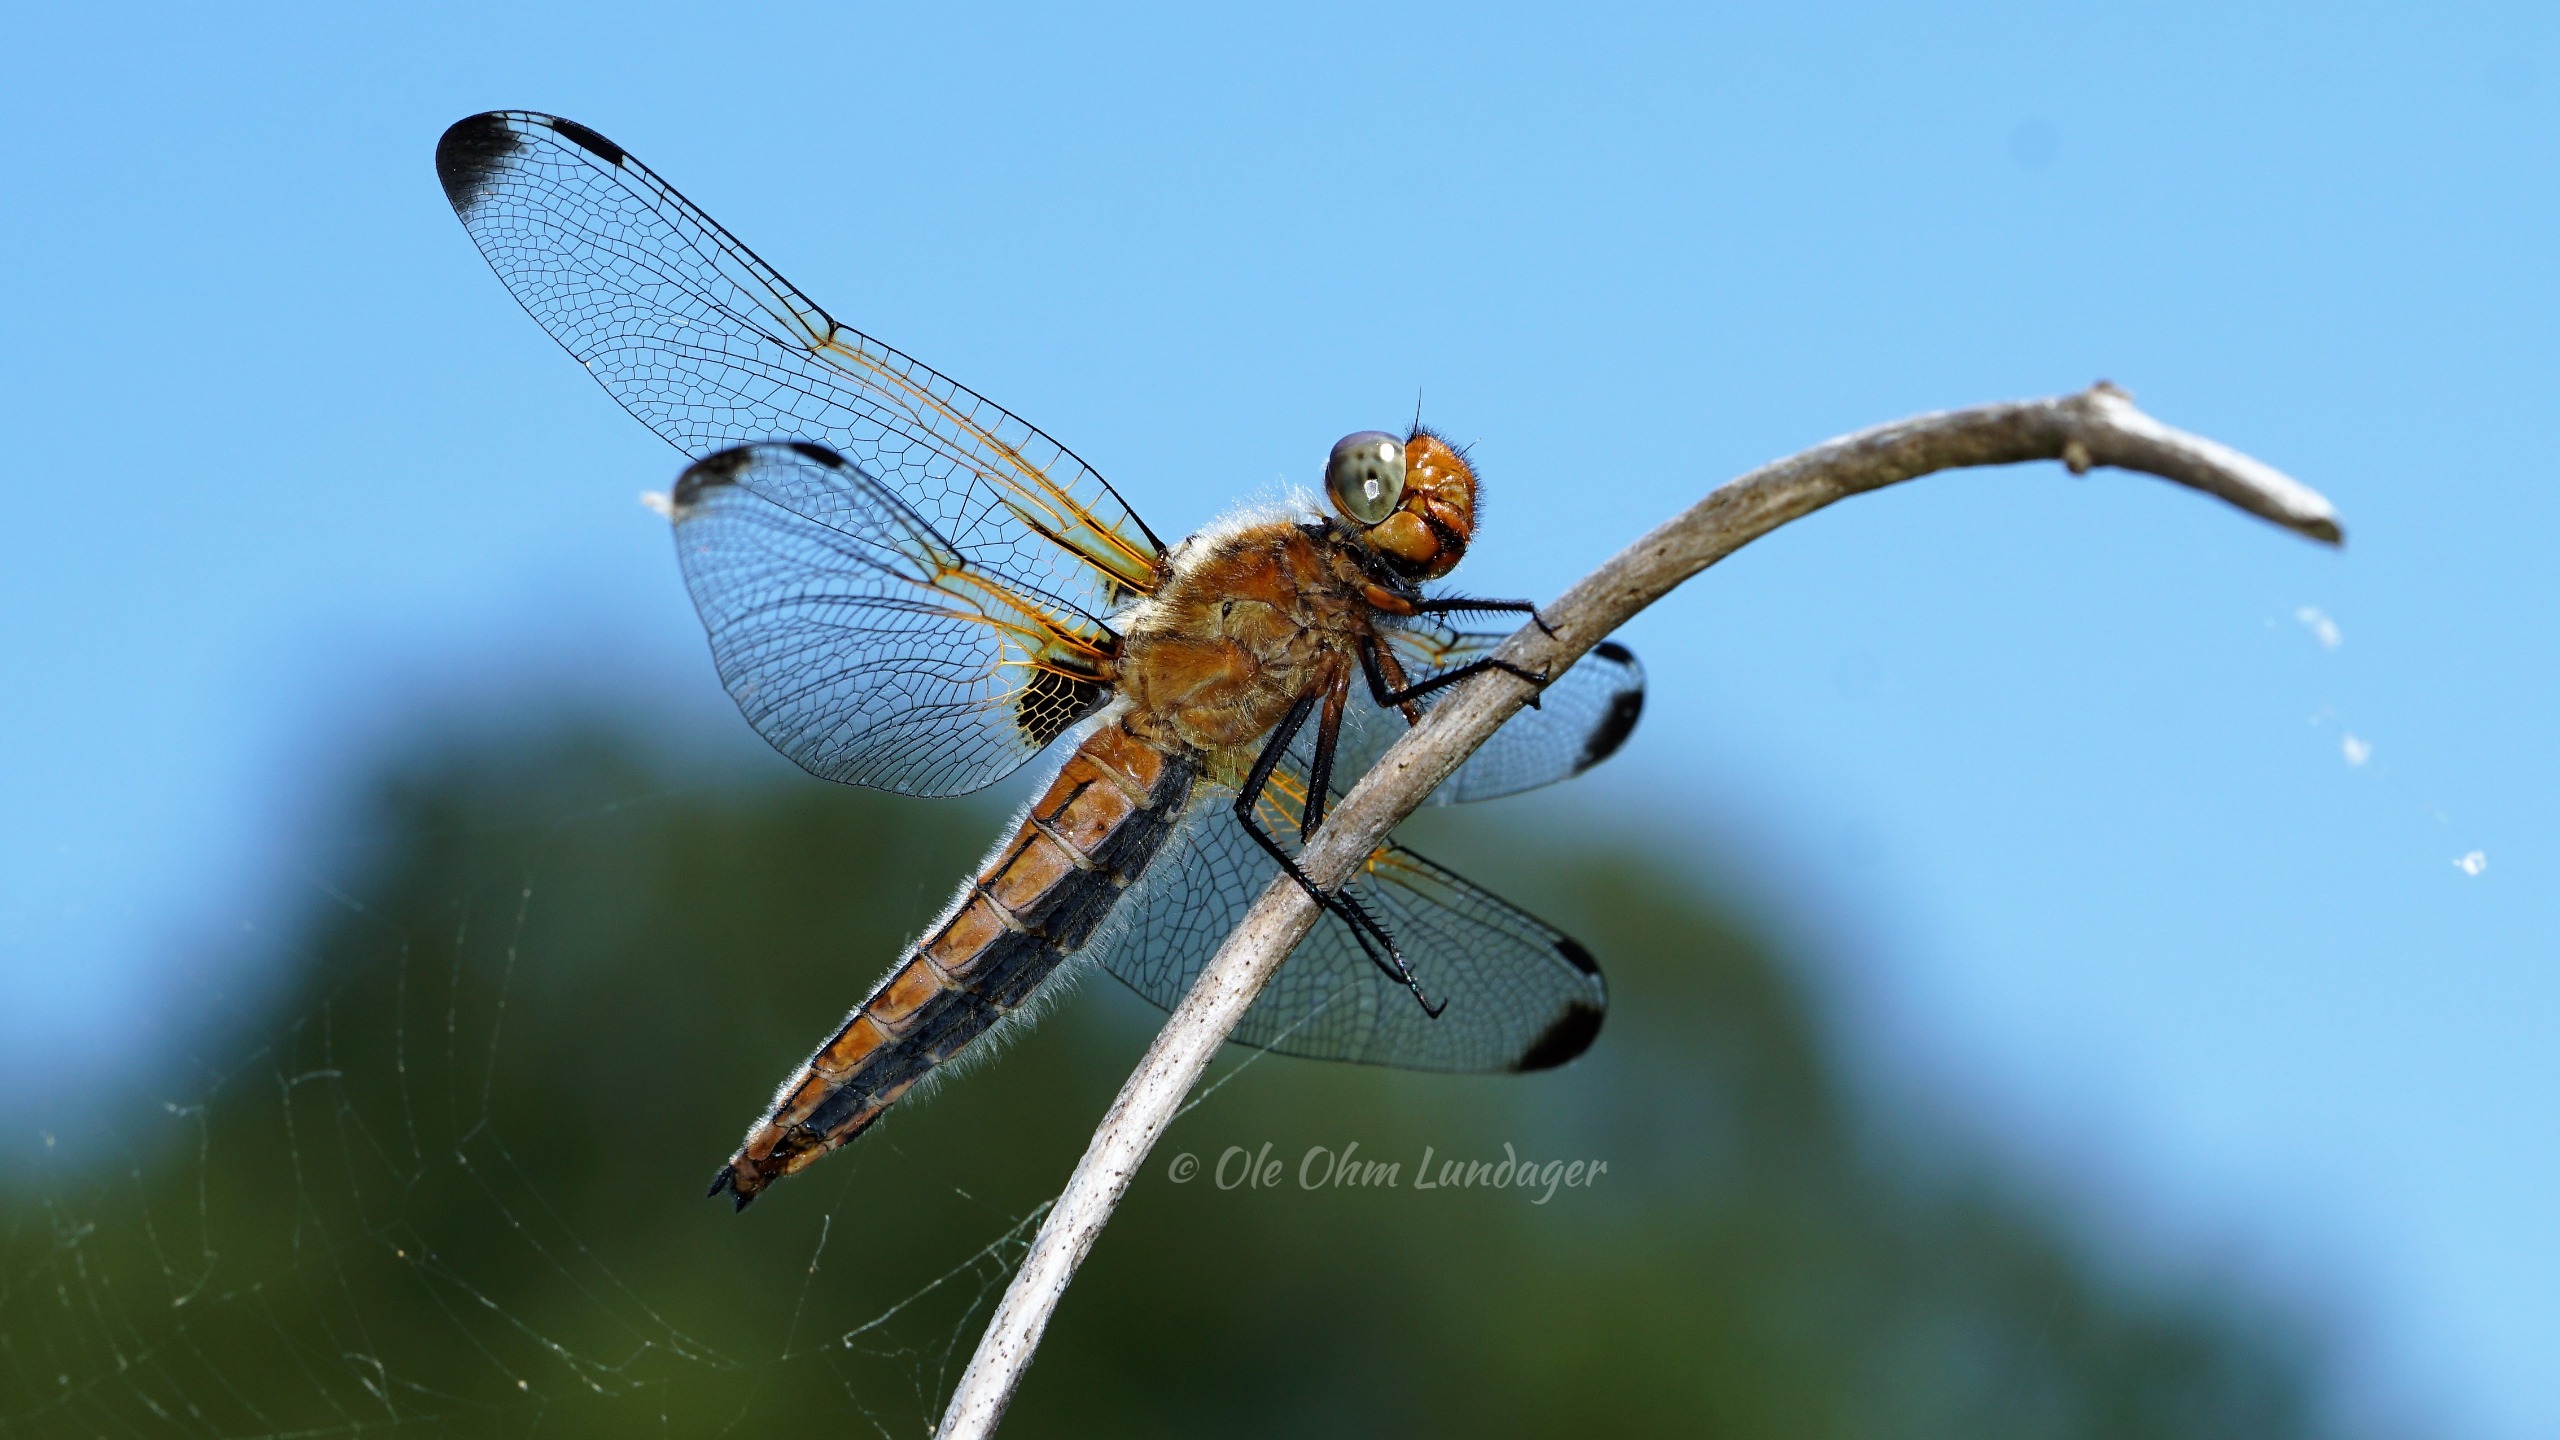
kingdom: Animalia
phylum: Arthropoda
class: Insecta
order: Odonata
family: Libellulidae
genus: Libellula
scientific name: Libellula fulva
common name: Spidsplettet libel
